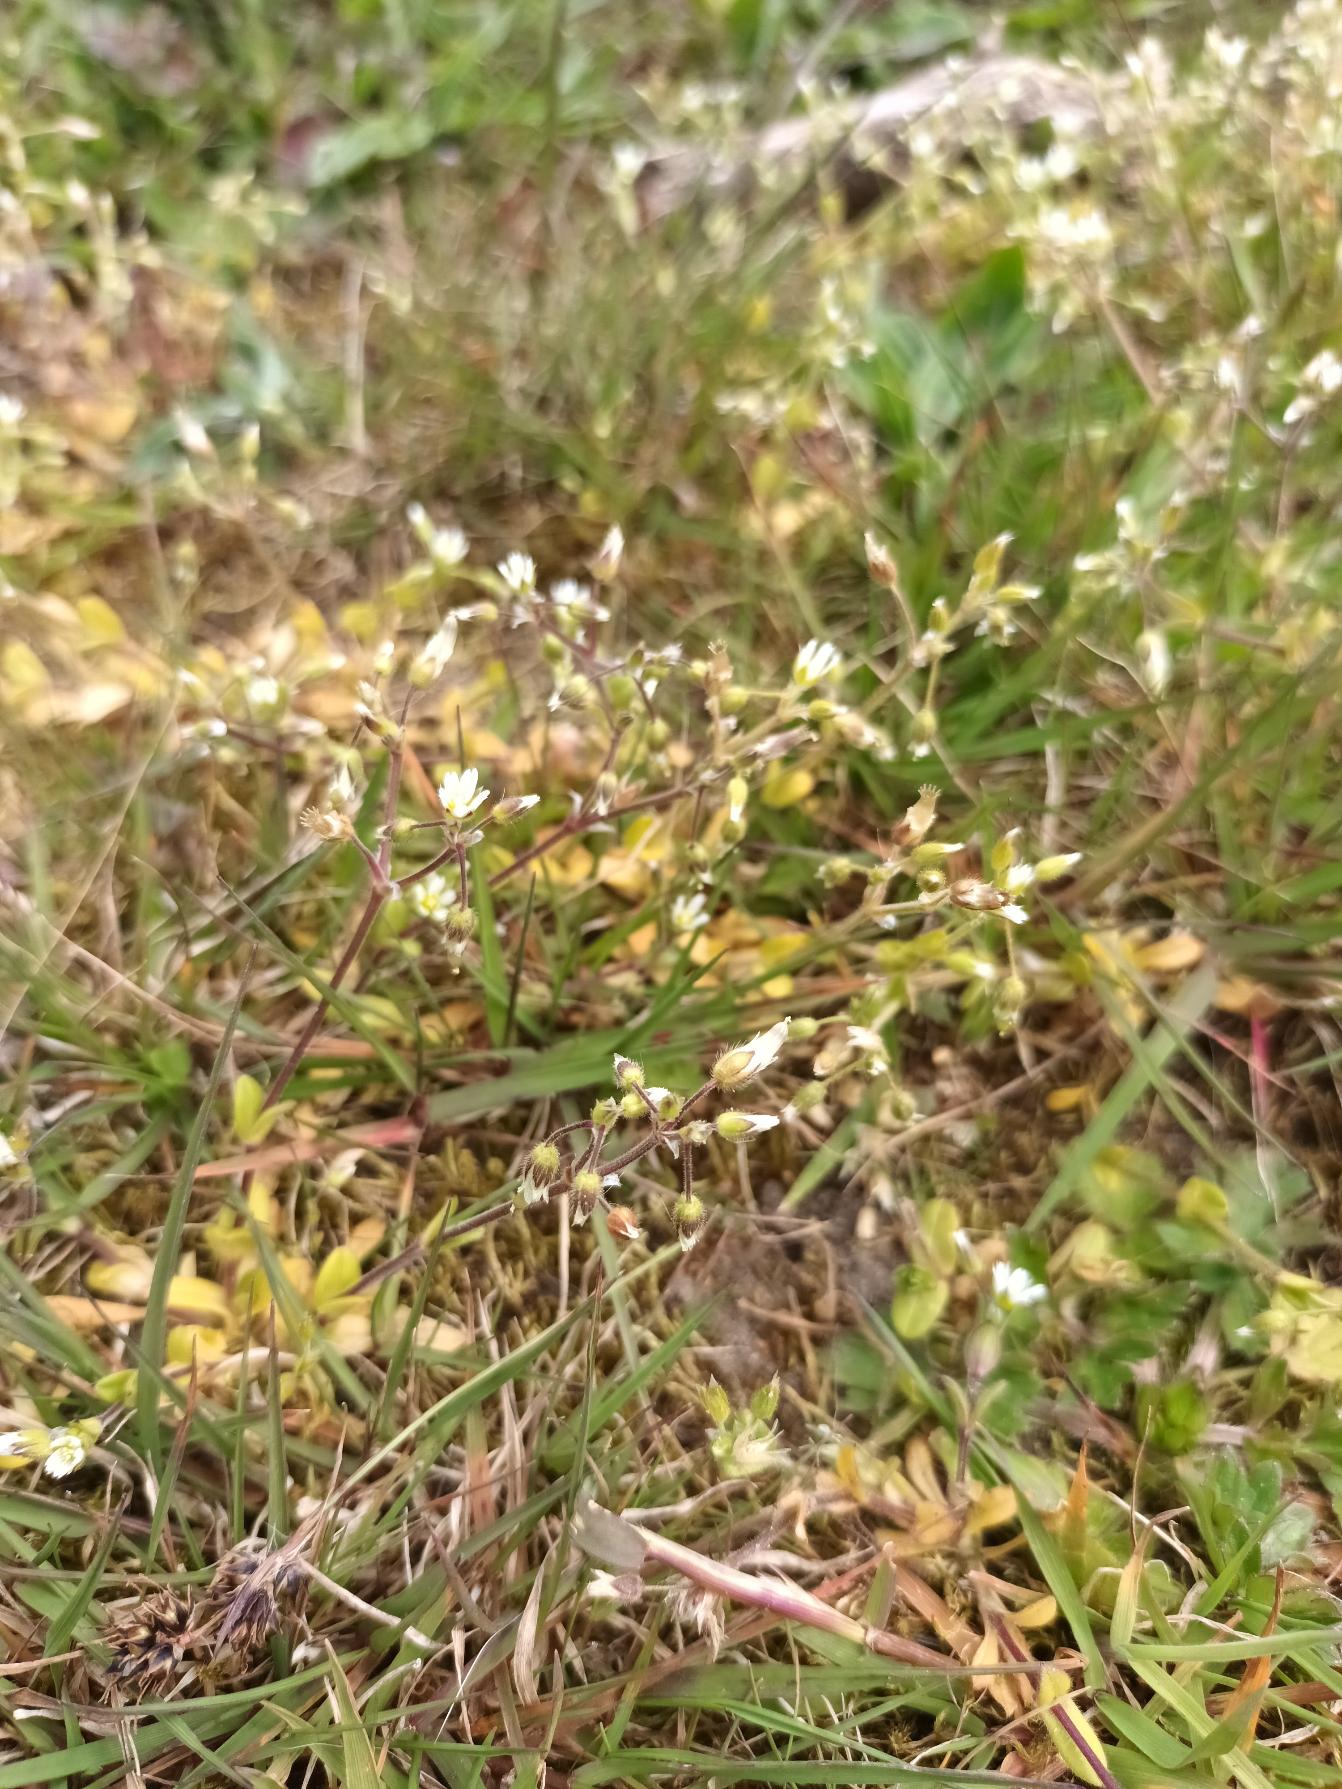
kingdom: Plantae
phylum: Tracheophyta
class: Magnoliopsida
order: Caryophyllales
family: Caryophyllaceae
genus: Cerastium
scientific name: Cerastium semidecandrum
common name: Femhannet hønsetarm
